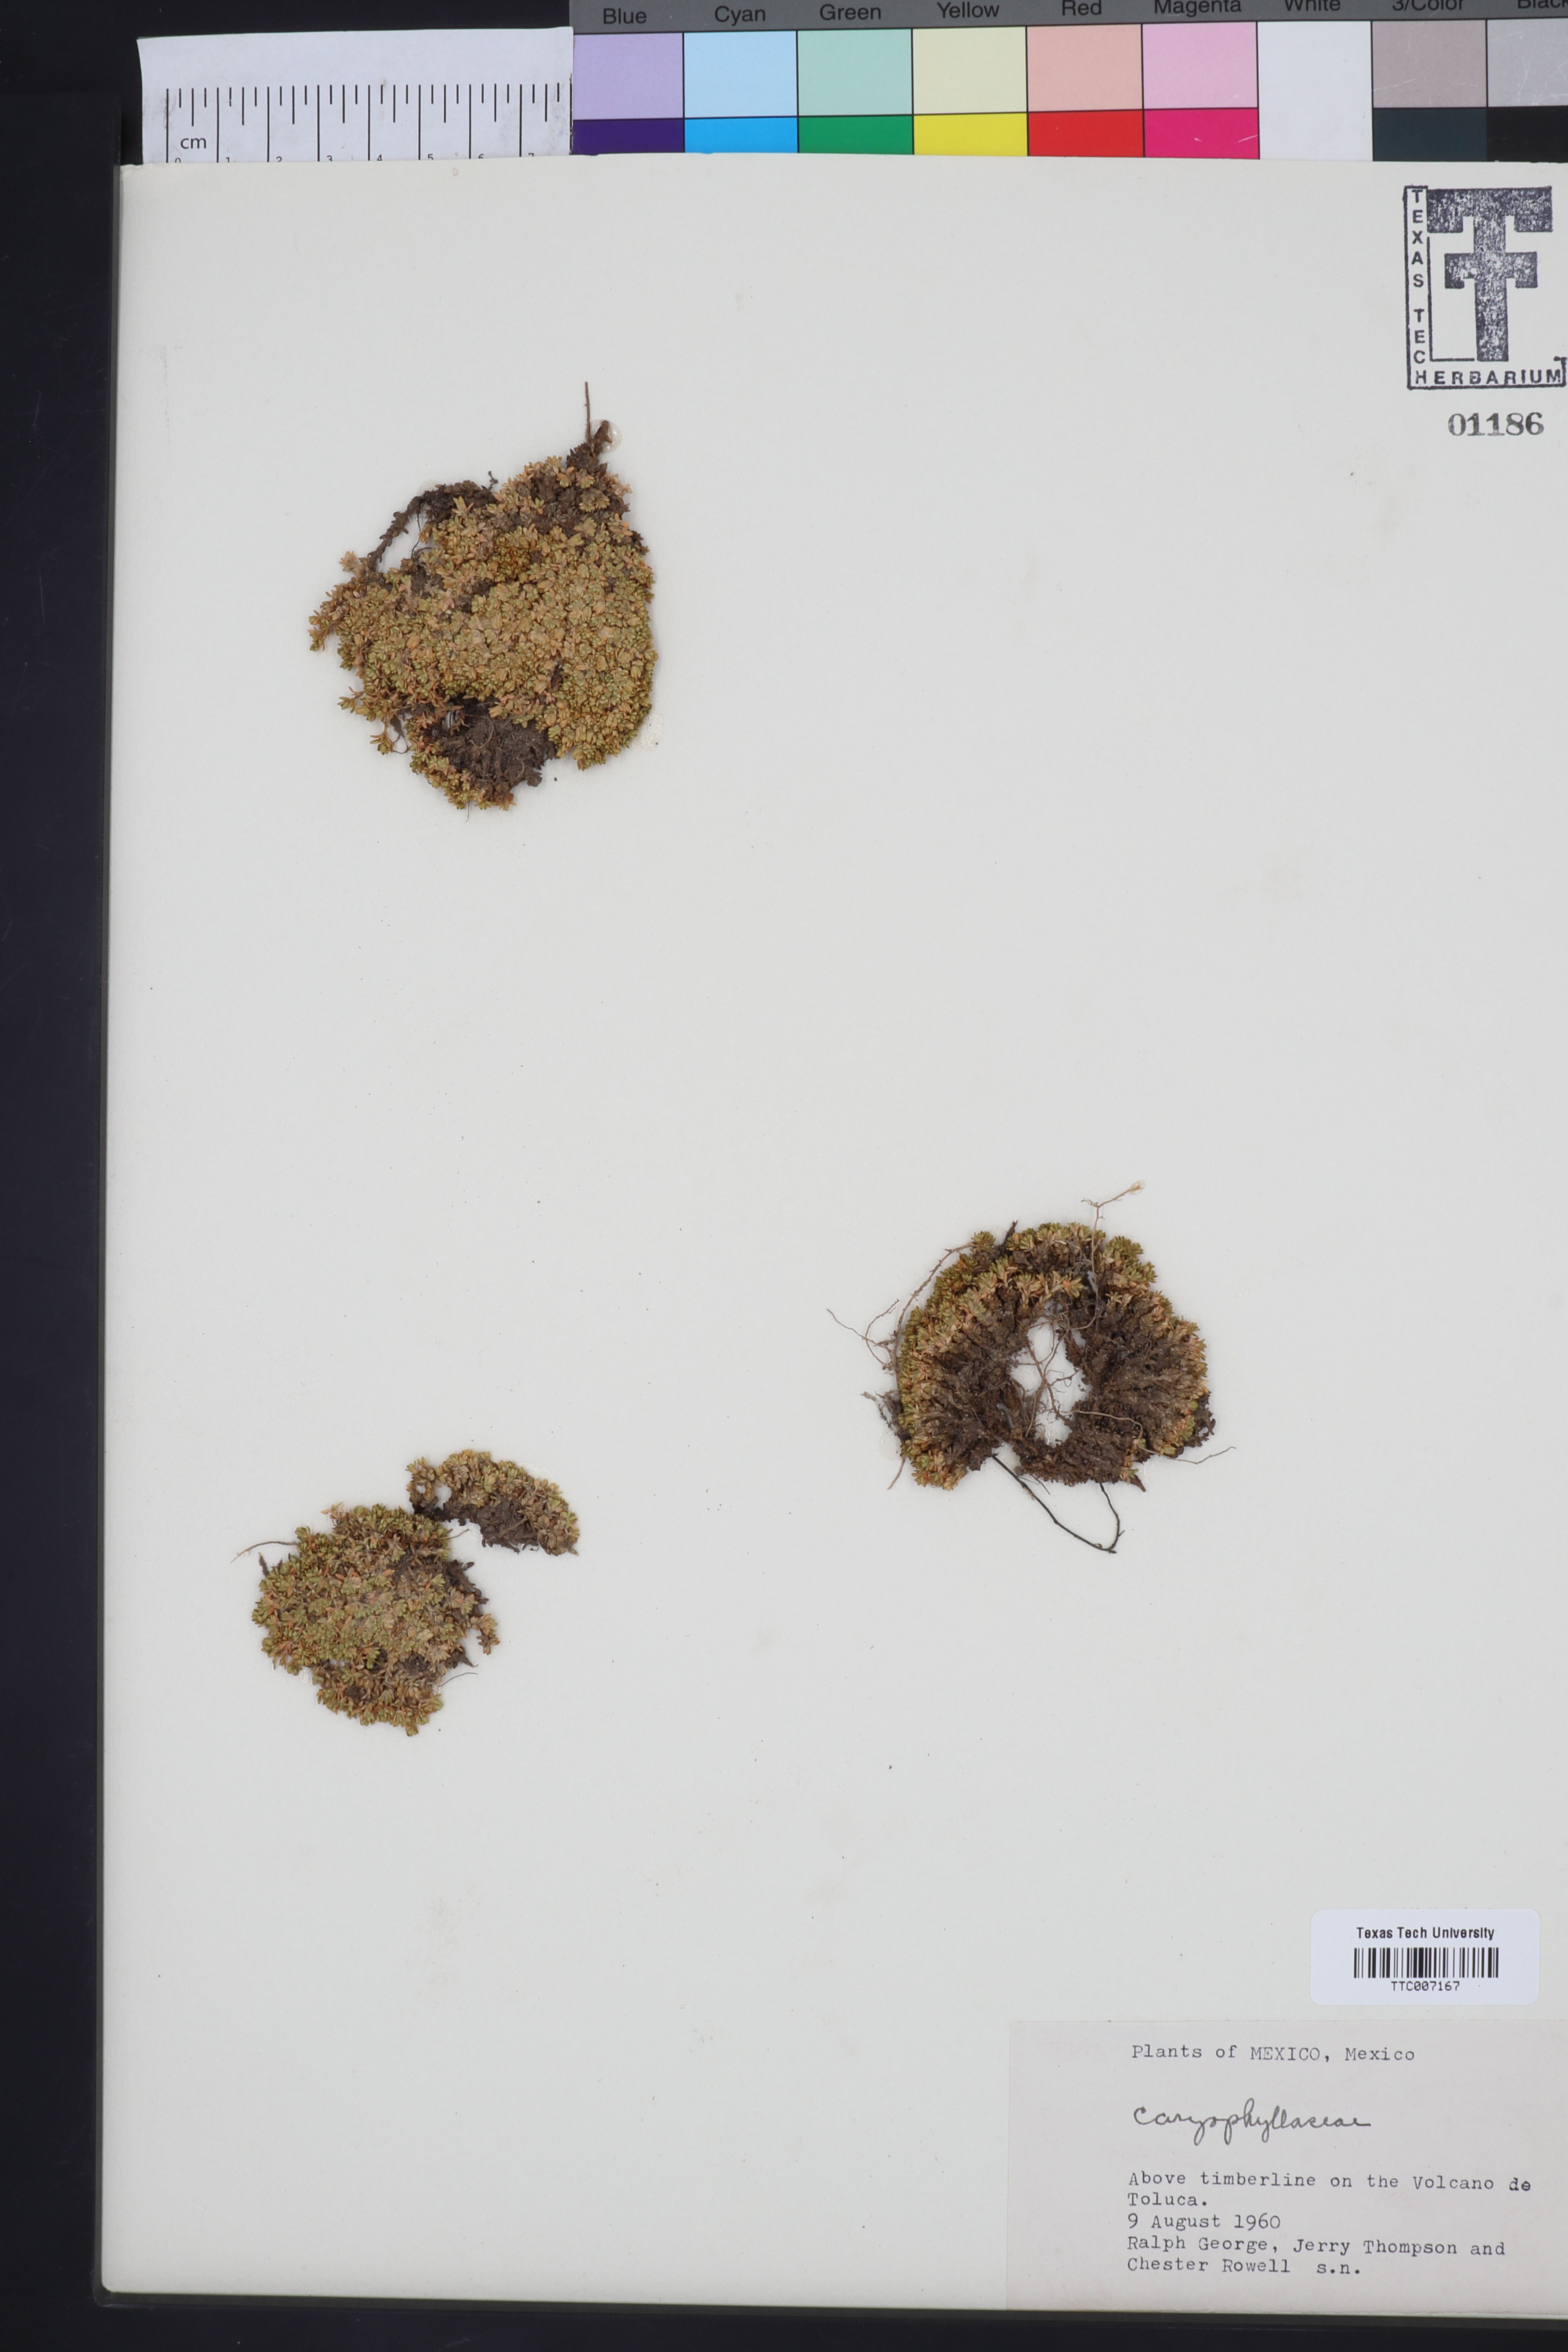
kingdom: Plantae
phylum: Tracheophyta
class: Magnoliopsida
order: Caryophyllales
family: Caryophyllaceae
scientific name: Caryophyllaceae
